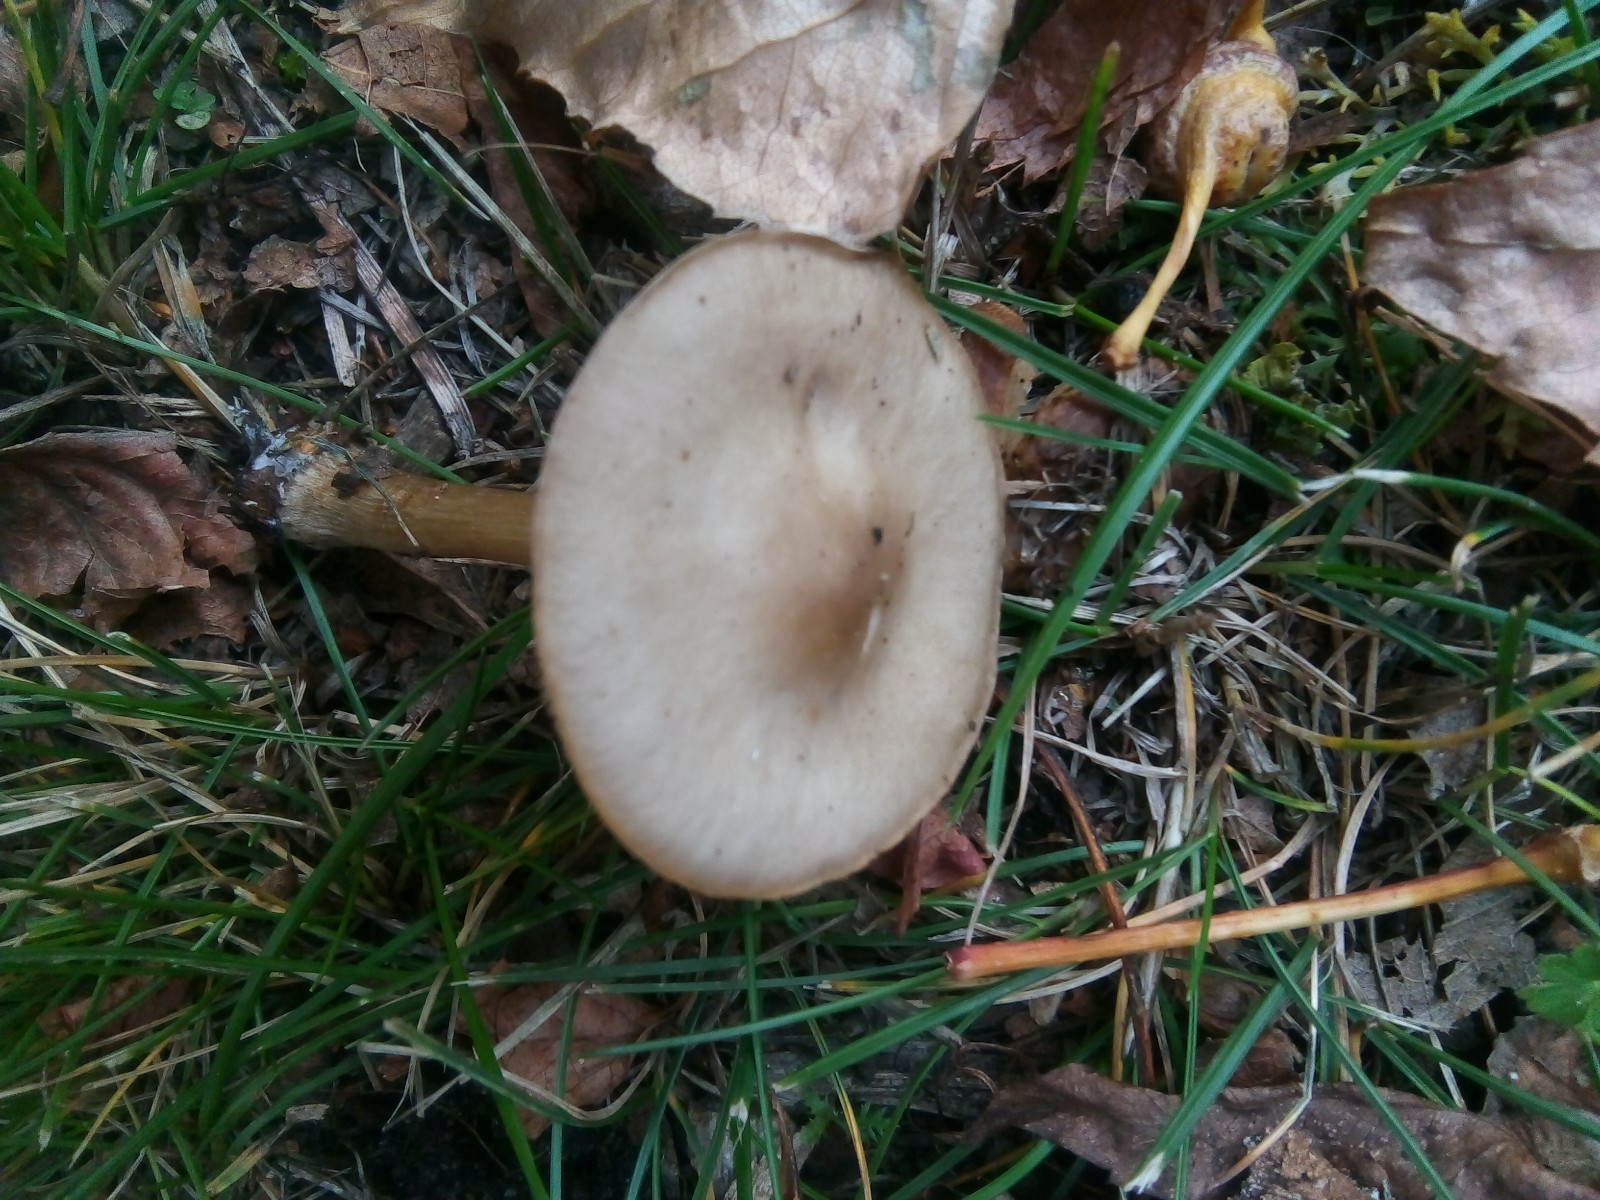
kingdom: Fungi
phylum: Basidiomycota
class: Agaricomycetes
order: Agaricales
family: Omphalotaceae
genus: Rhodocollybia
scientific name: Rhodocollybia asema
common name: horngrå fladhat
